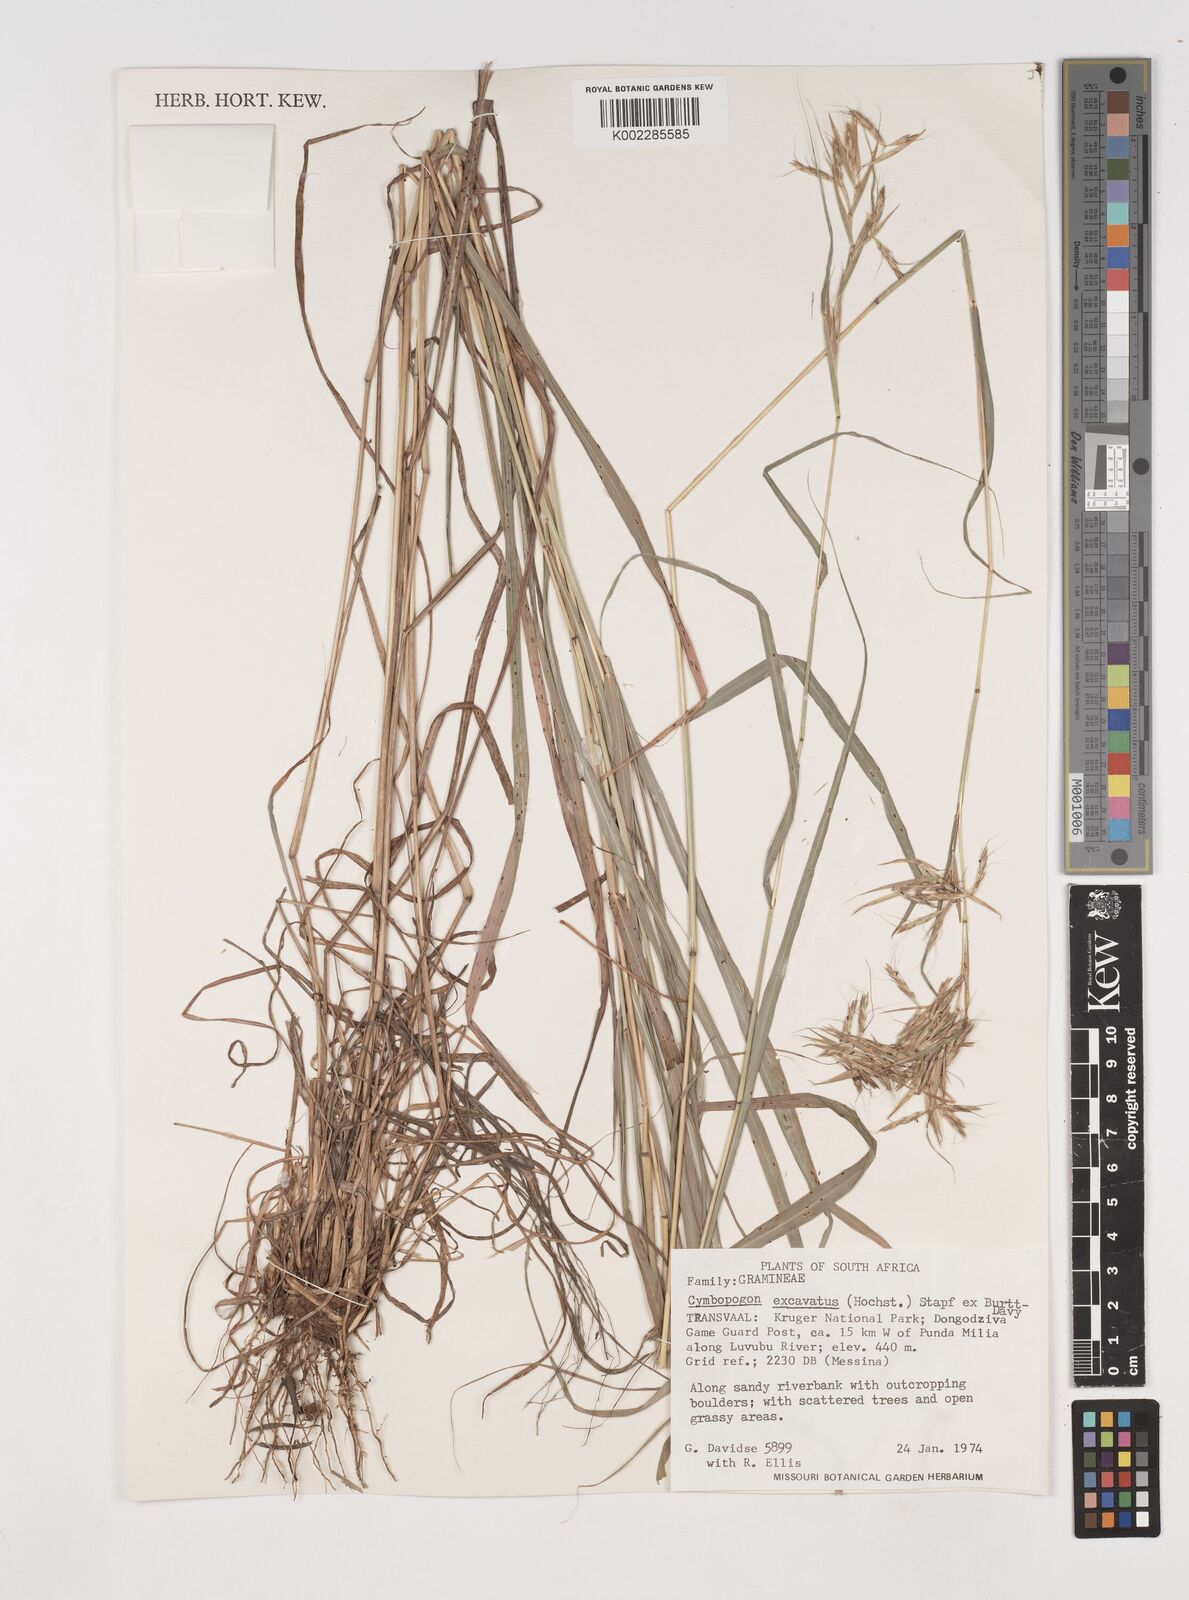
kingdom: Plantae
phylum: Tracheophyta
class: Liliopsida
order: Poales
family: Poaceae
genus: Cymbopogon
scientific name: Cymbopogon caesius
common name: Kachi grass
